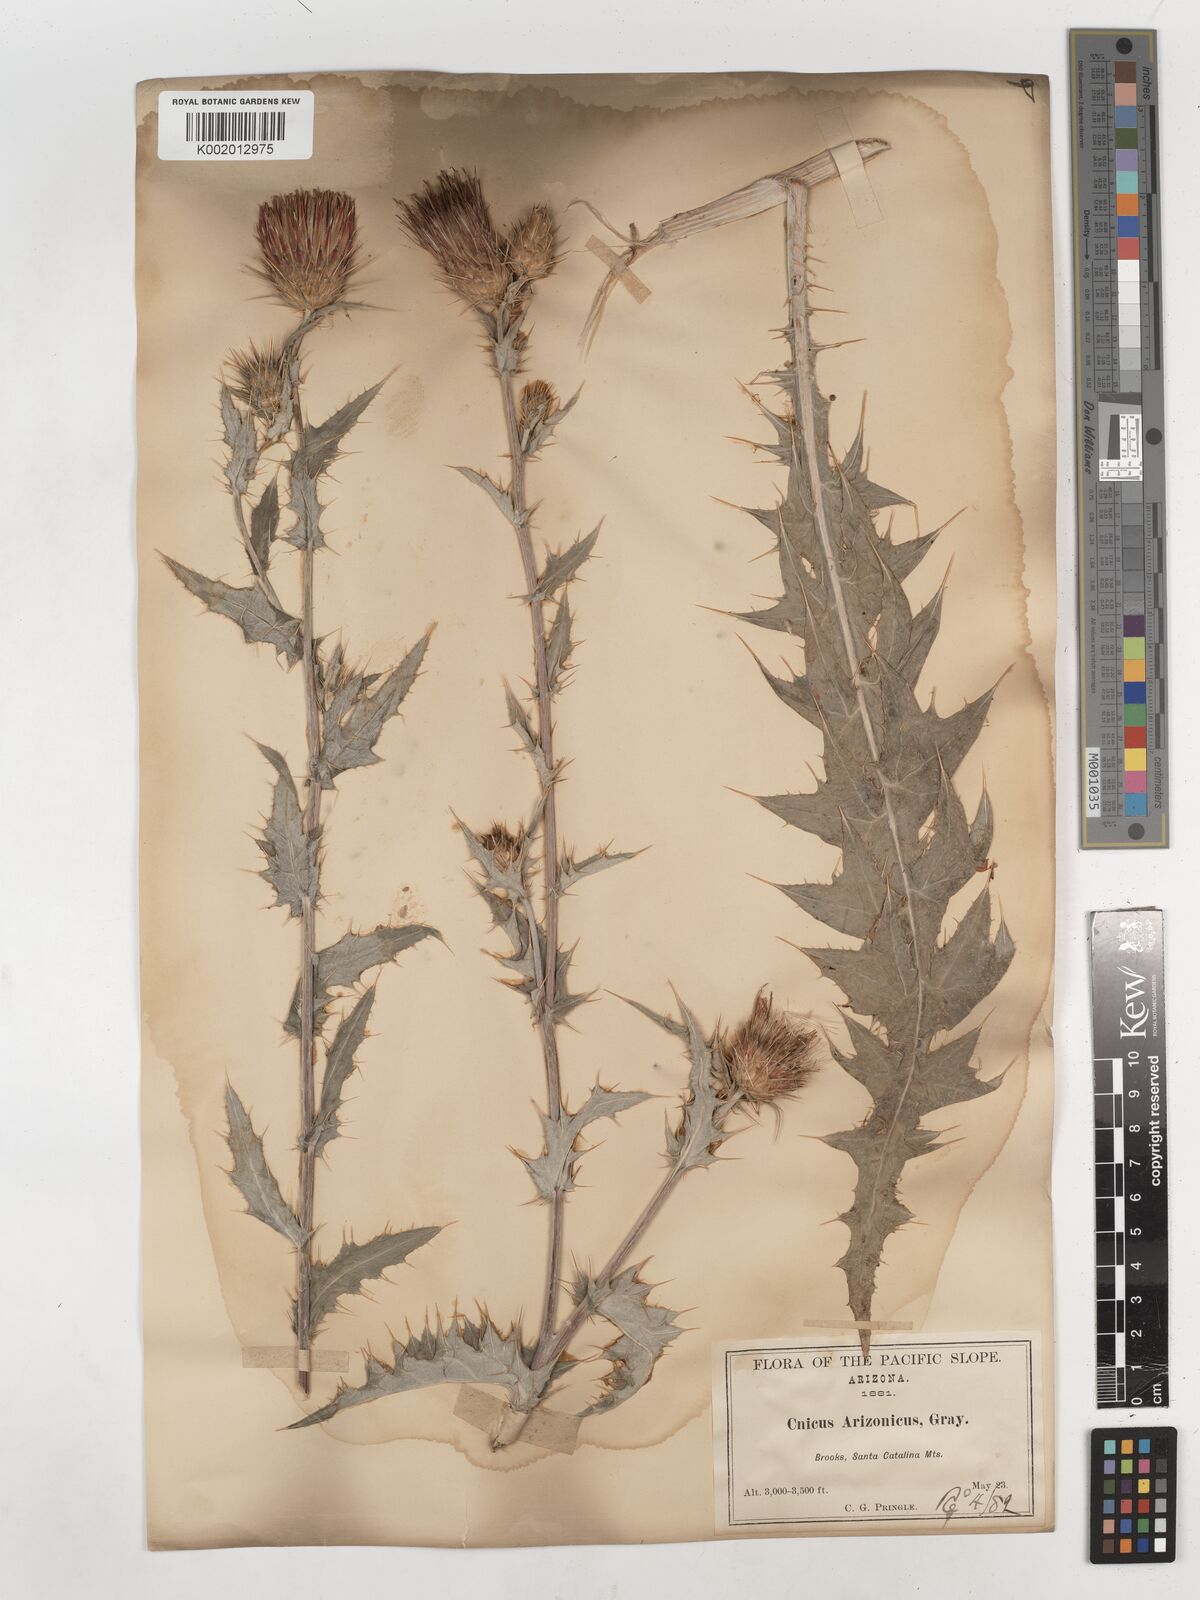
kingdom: Plantae
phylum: Tracheophyta
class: Magnoliopsida
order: Asterales
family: Asteraceae
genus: Cirsium
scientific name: Cirsium arizonicum
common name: Arizona thistle
